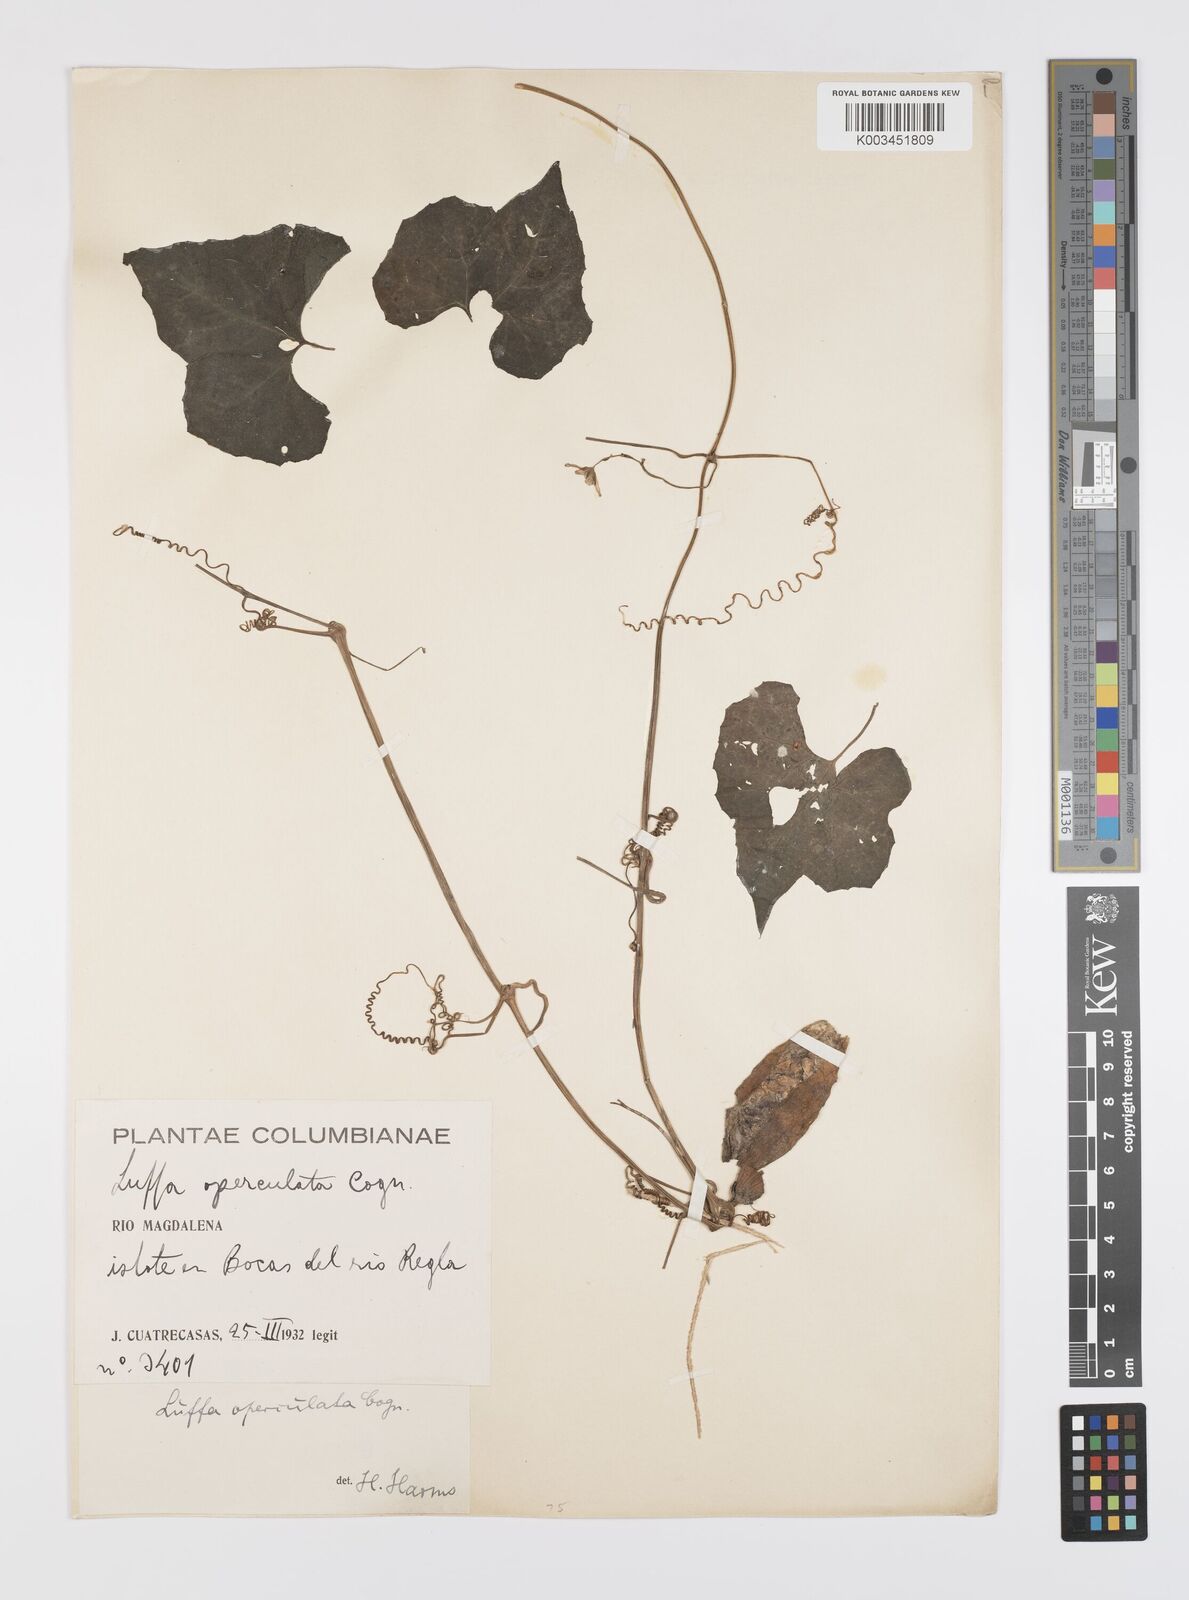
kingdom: Plantae
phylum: Tracheophyta
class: Magnoliopsida
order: Cucurbitales
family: Cucurbitaceae
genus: Luffa
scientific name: Luffa operculata
